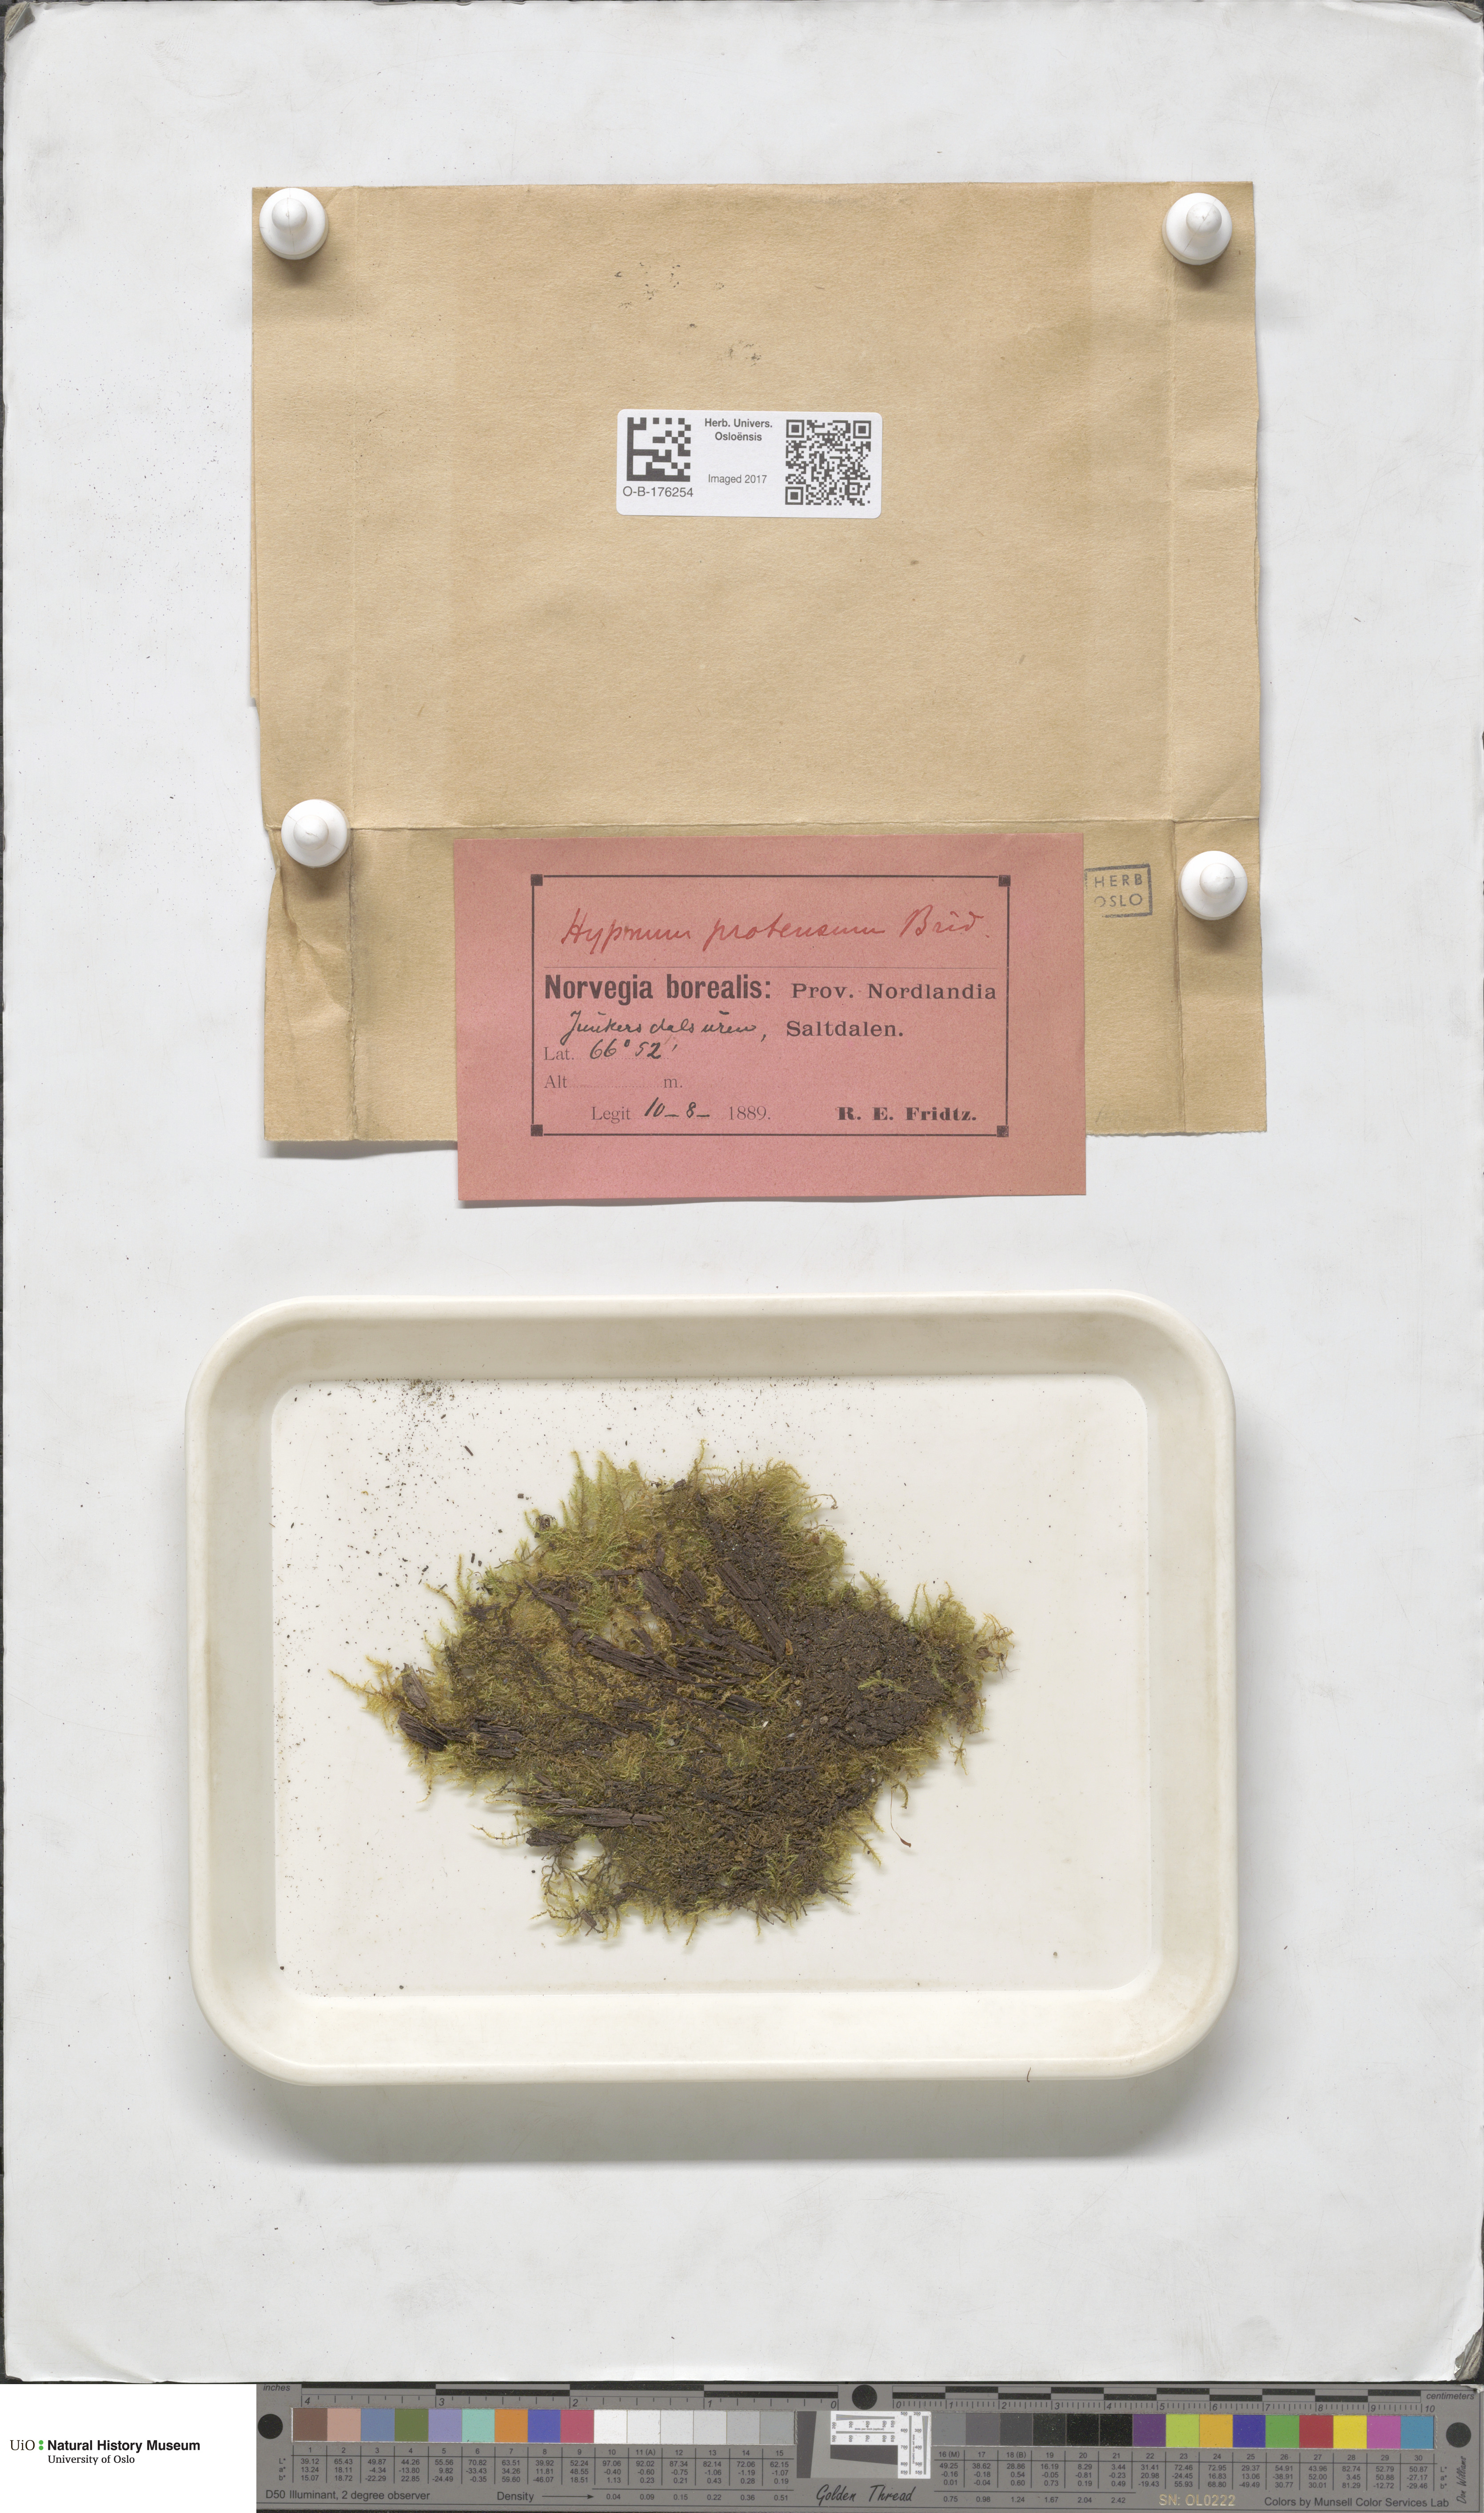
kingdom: Plantae
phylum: Bryophyta
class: Bryopsida
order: Hypnales
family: Amblystegiaceae
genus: Campylium
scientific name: Campylium stellatum
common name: Yellow starry fen moss
